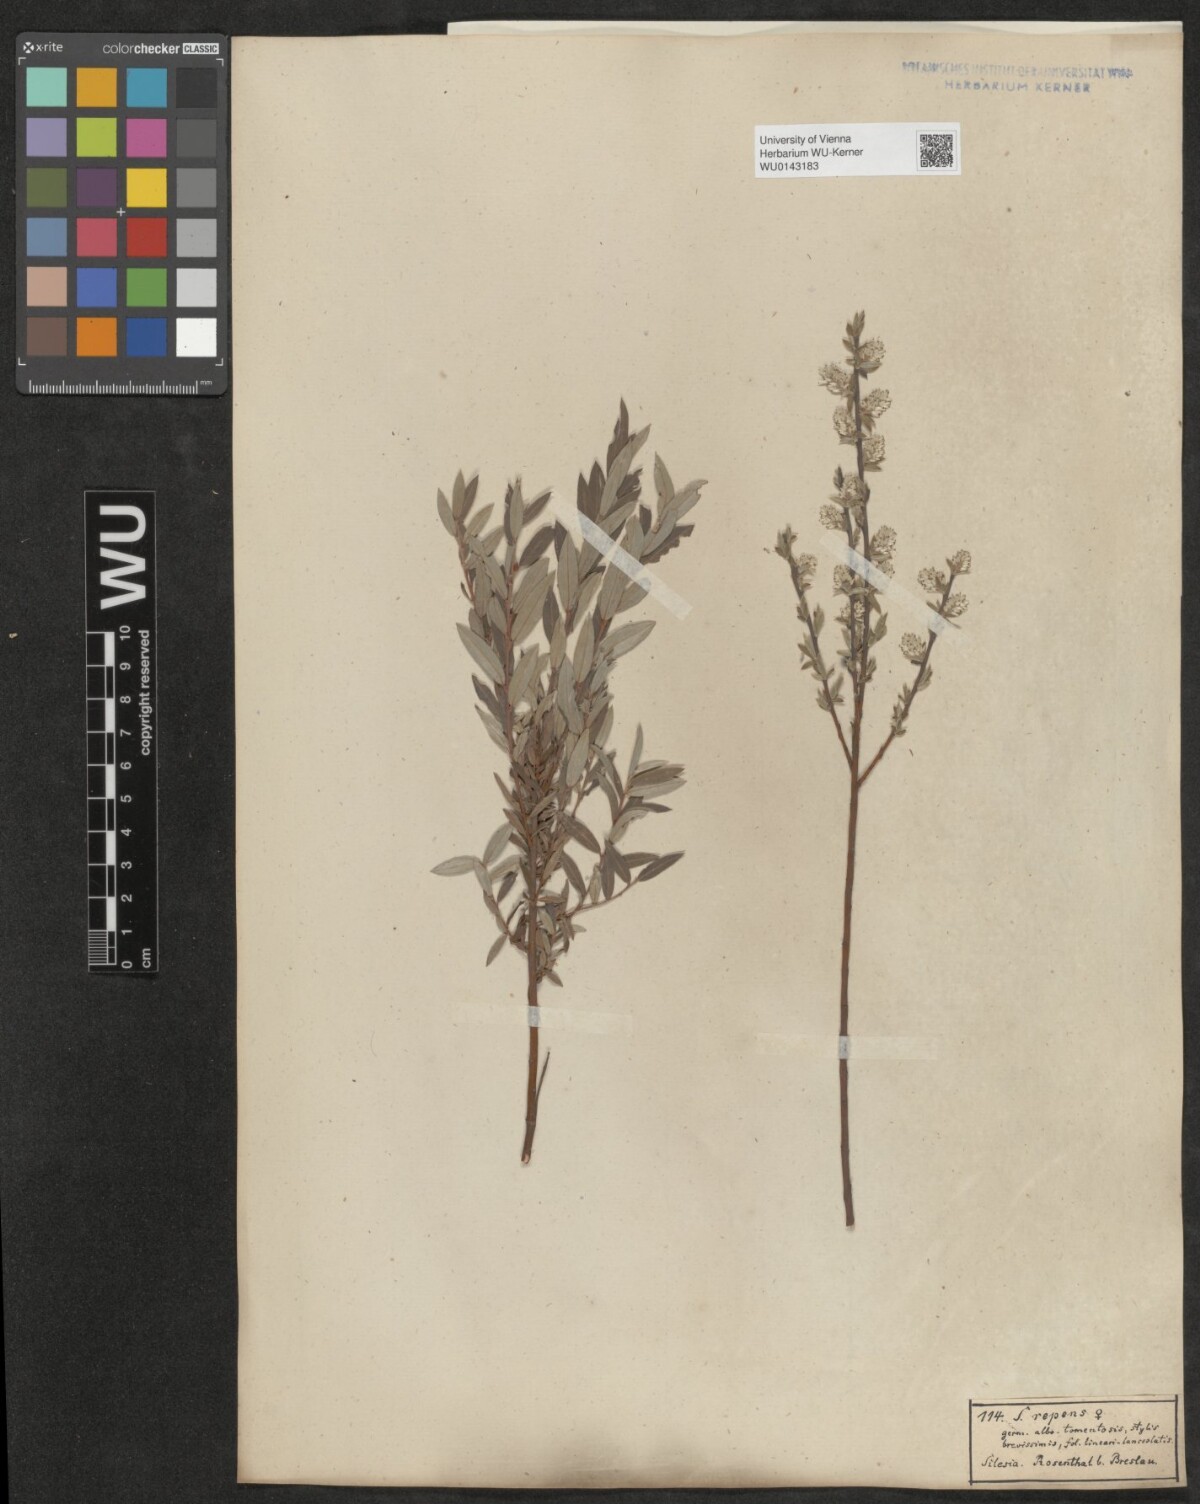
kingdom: Plantae
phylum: Tracheophyta
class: Magnoliopsida
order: Malpighiales
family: Salicaceae
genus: Salix
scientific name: Salix repens
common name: Creeping willow
